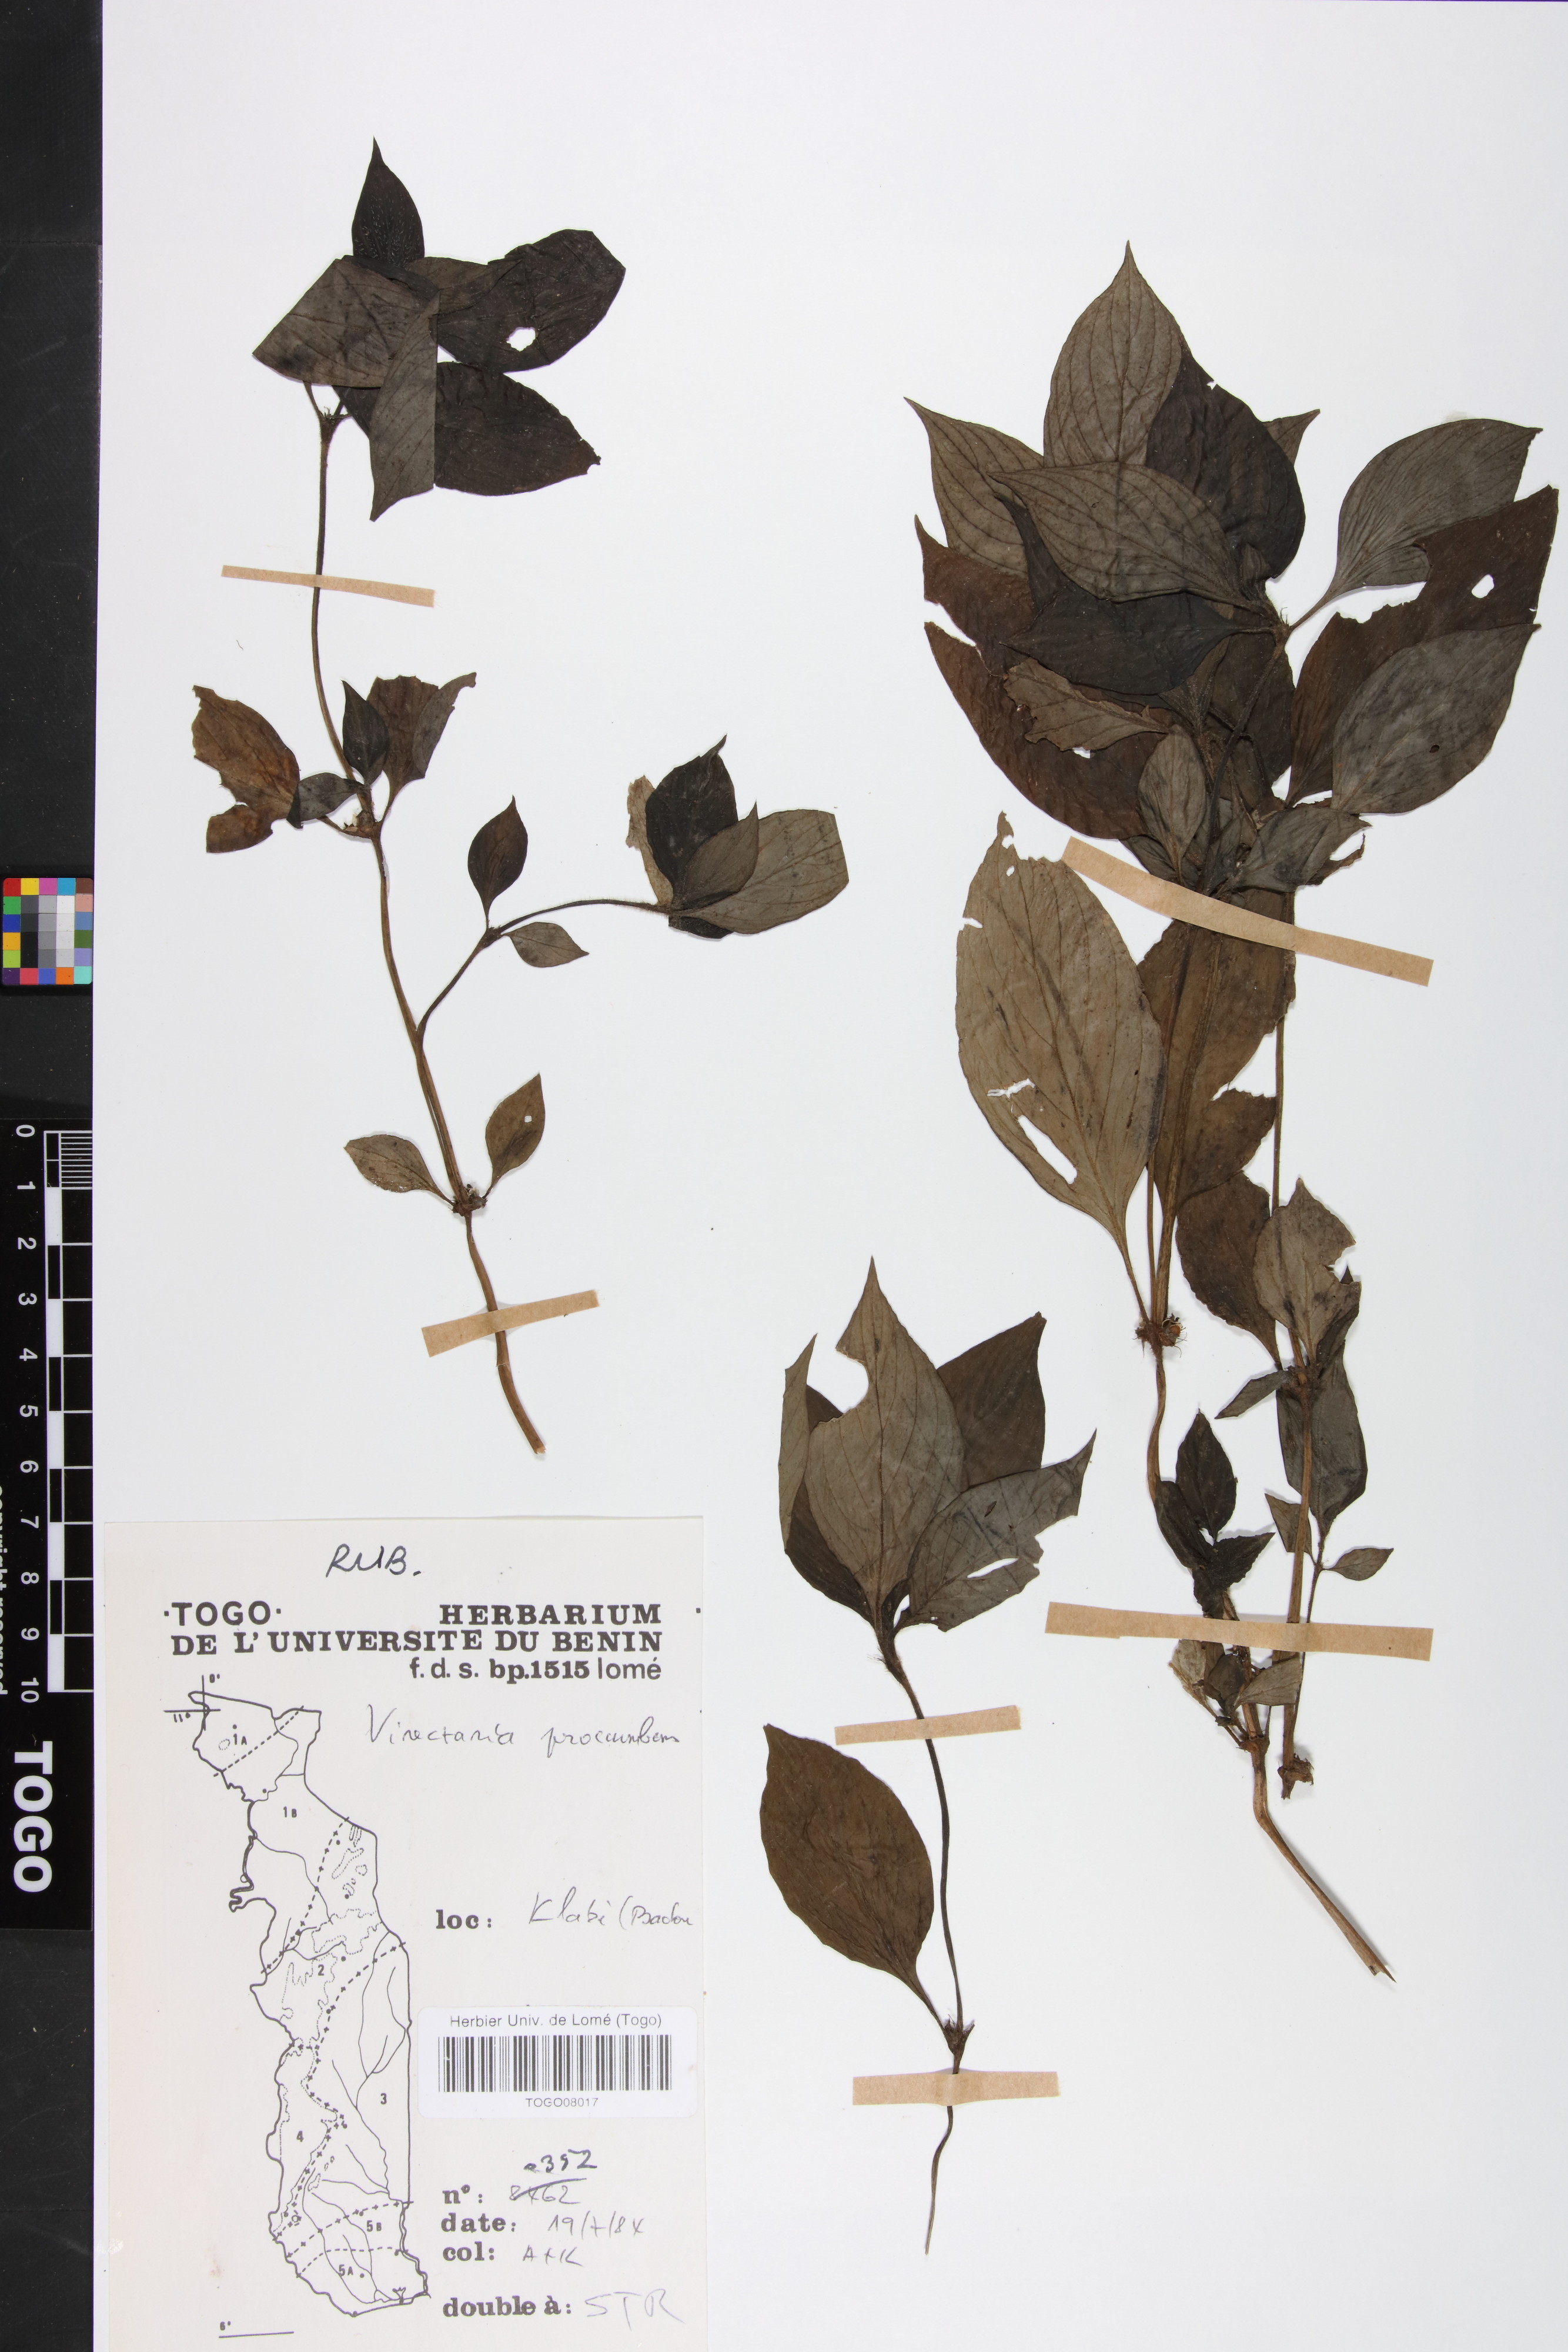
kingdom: Plantae
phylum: Tracheophyta
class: Magnoliopsida
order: Gentianales
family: Rubiaceae
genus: Virectaria
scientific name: Virectaria procumbens
